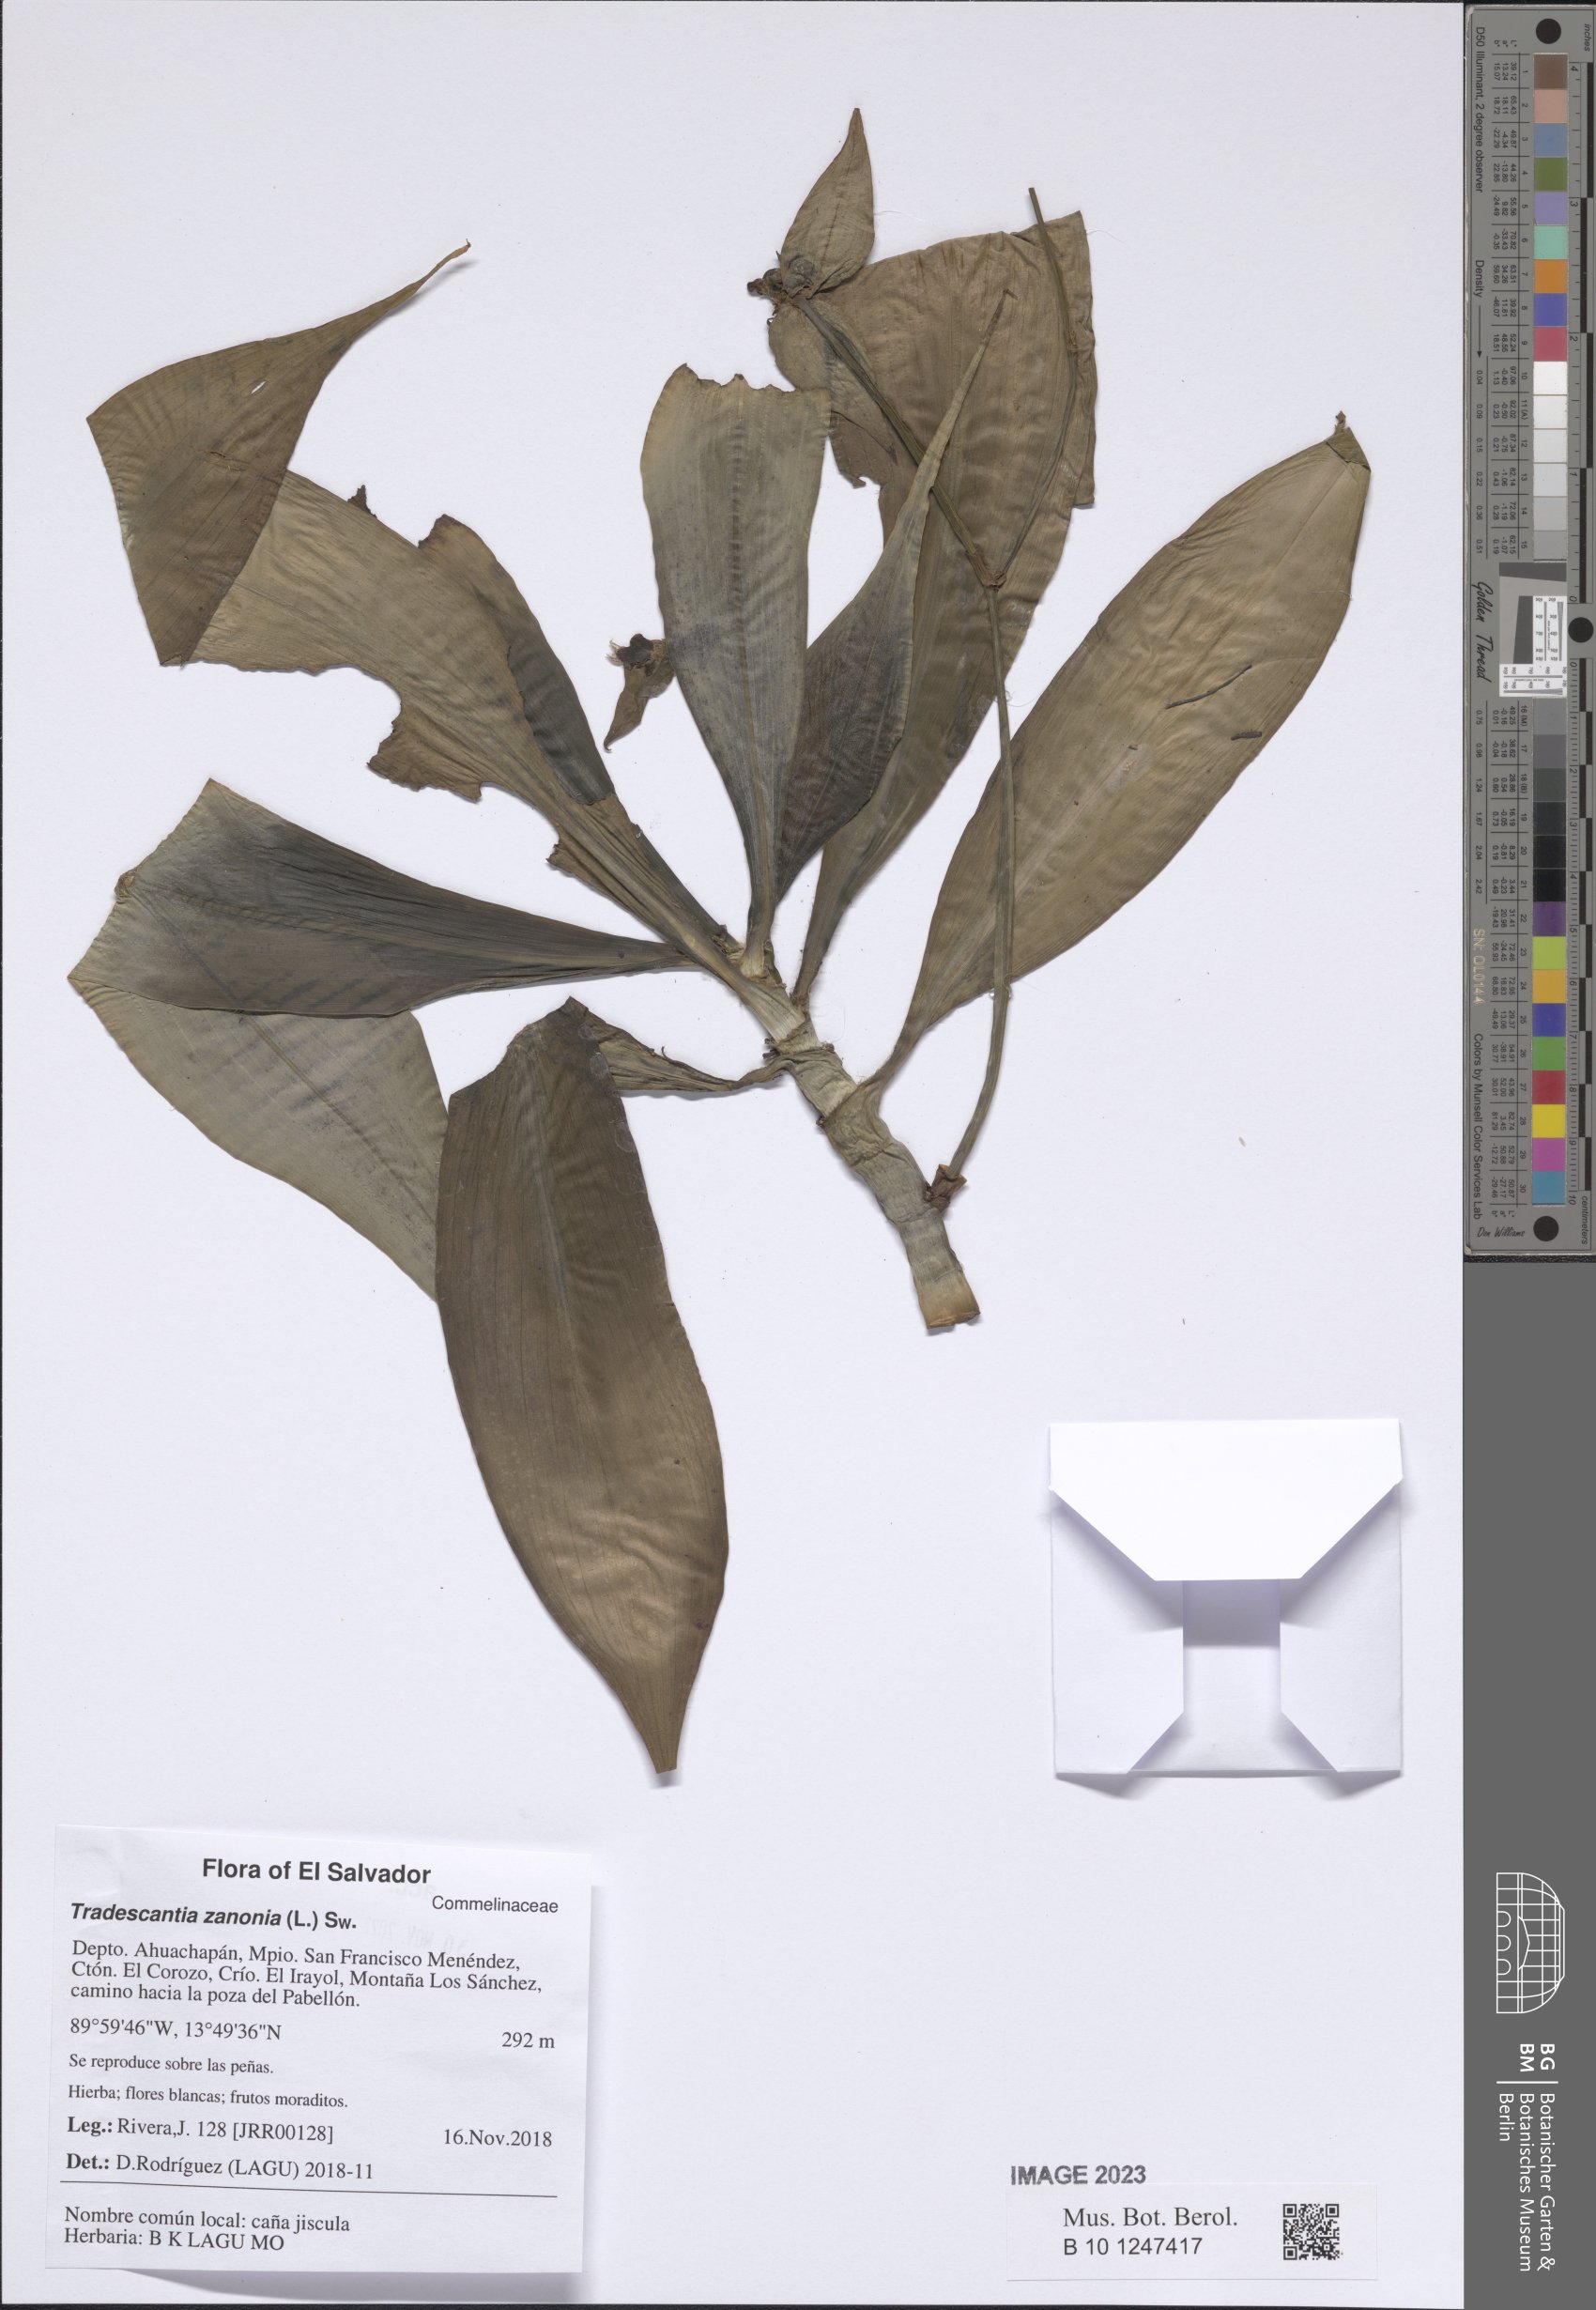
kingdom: Plantae
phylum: Tracheophyta
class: Liliopsida
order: Commelinales
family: Commelinaceae
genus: Tradescantia
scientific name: Tradescantia zanonia
